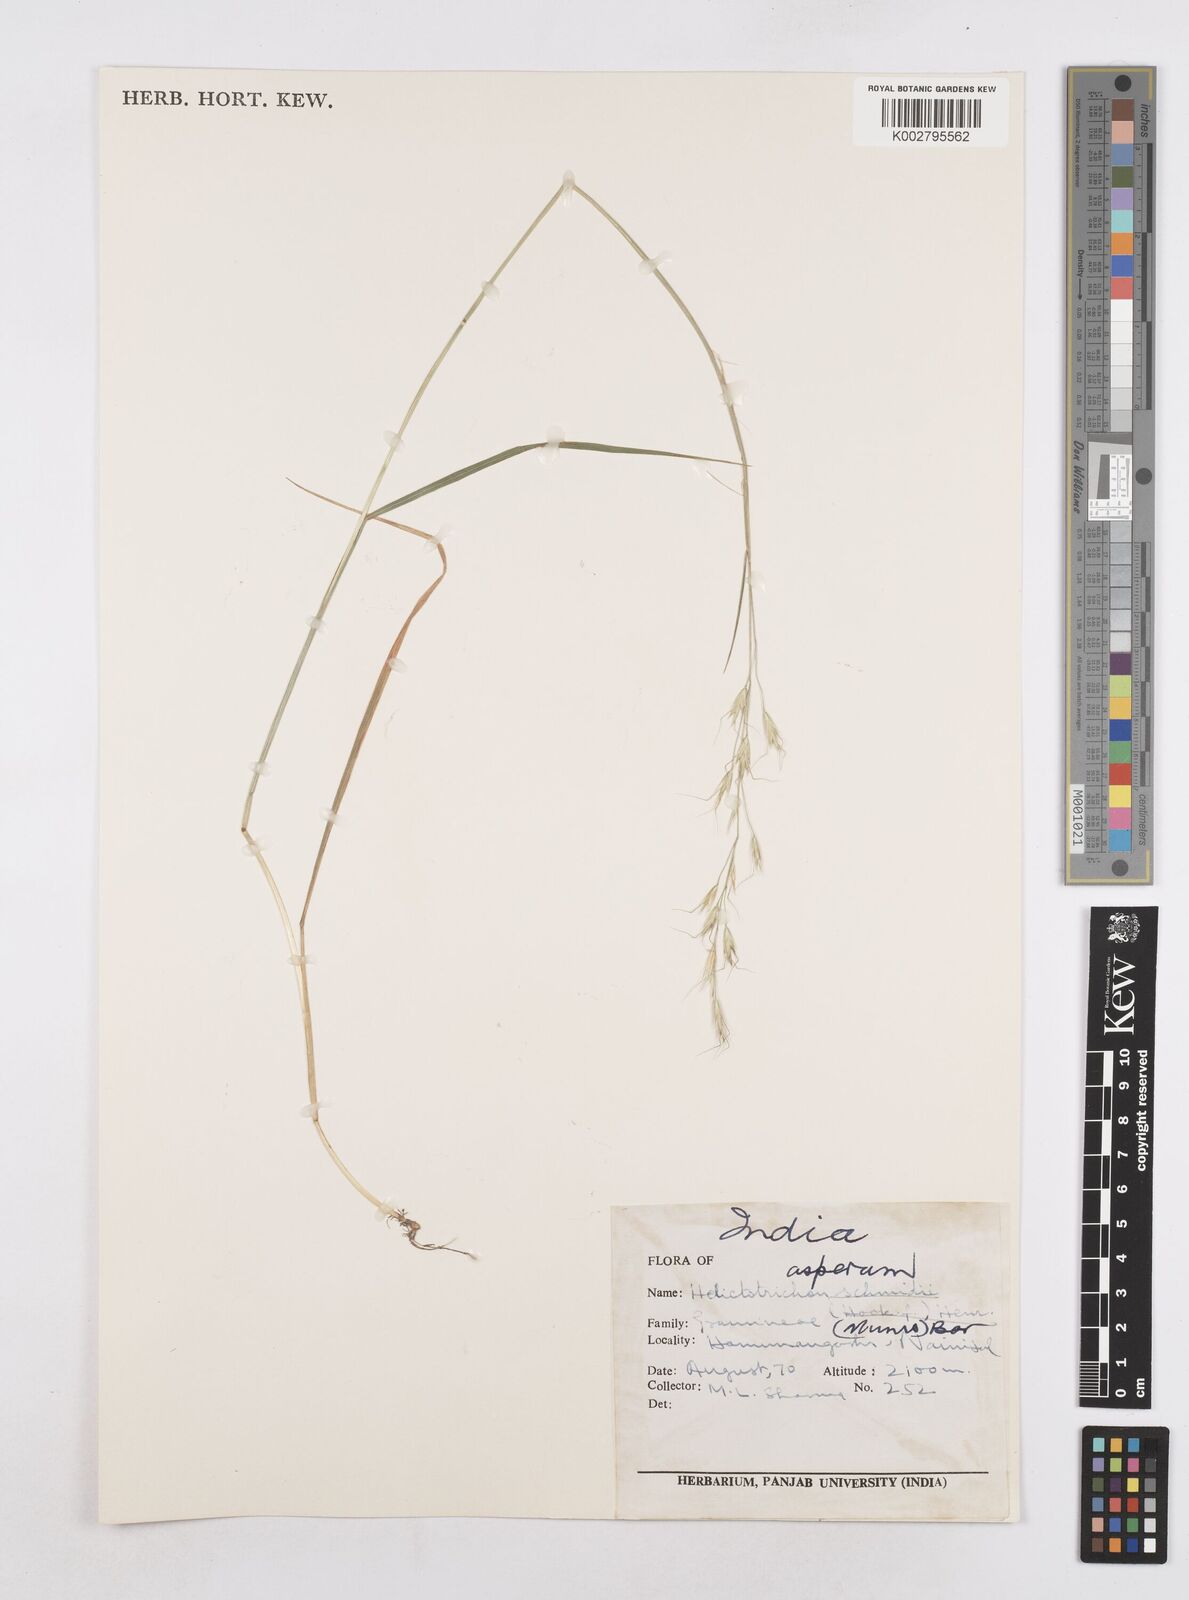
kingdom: Plantae
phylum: Tracheophyta
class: Liliopsida
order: Poales
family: Poaceae
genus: Trisetopsis
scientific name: Trisetopsis junghuhnii
